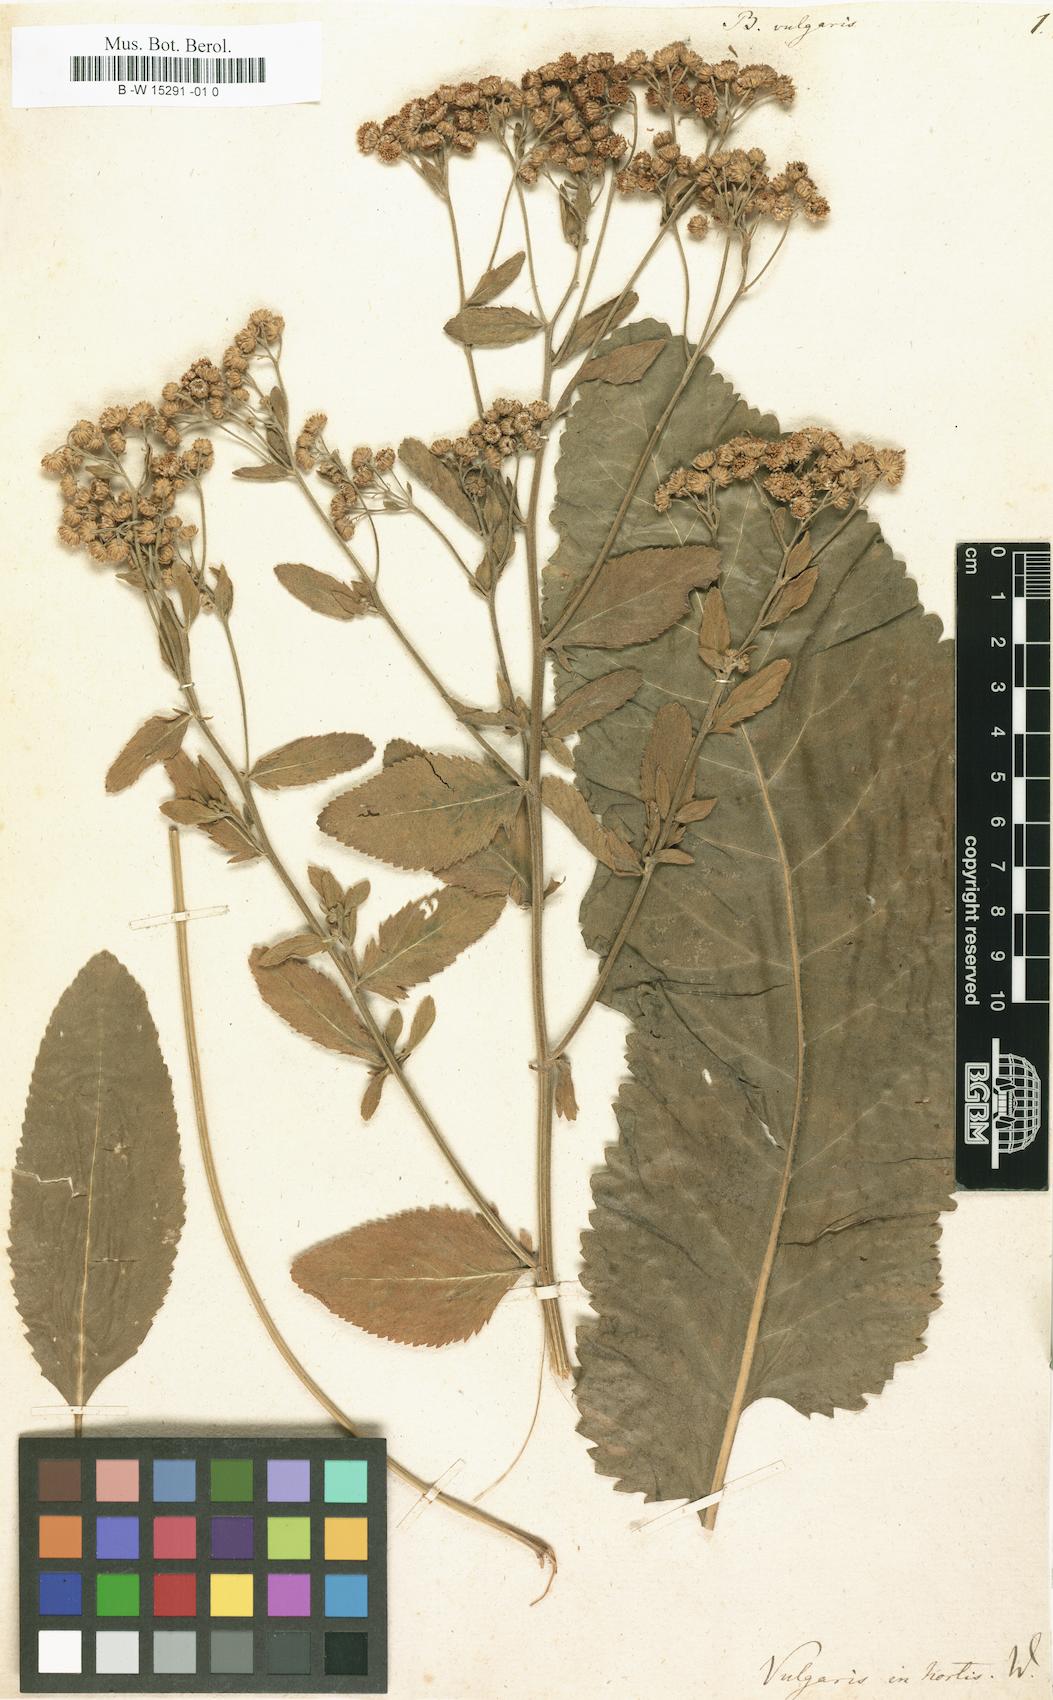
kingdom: Plantae
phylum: Tracheophyta
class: Magnoliopsida
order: Asterales
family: Asteraceae
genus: Tanacetum
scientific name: Tanacetum balsamita
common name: Costmary
